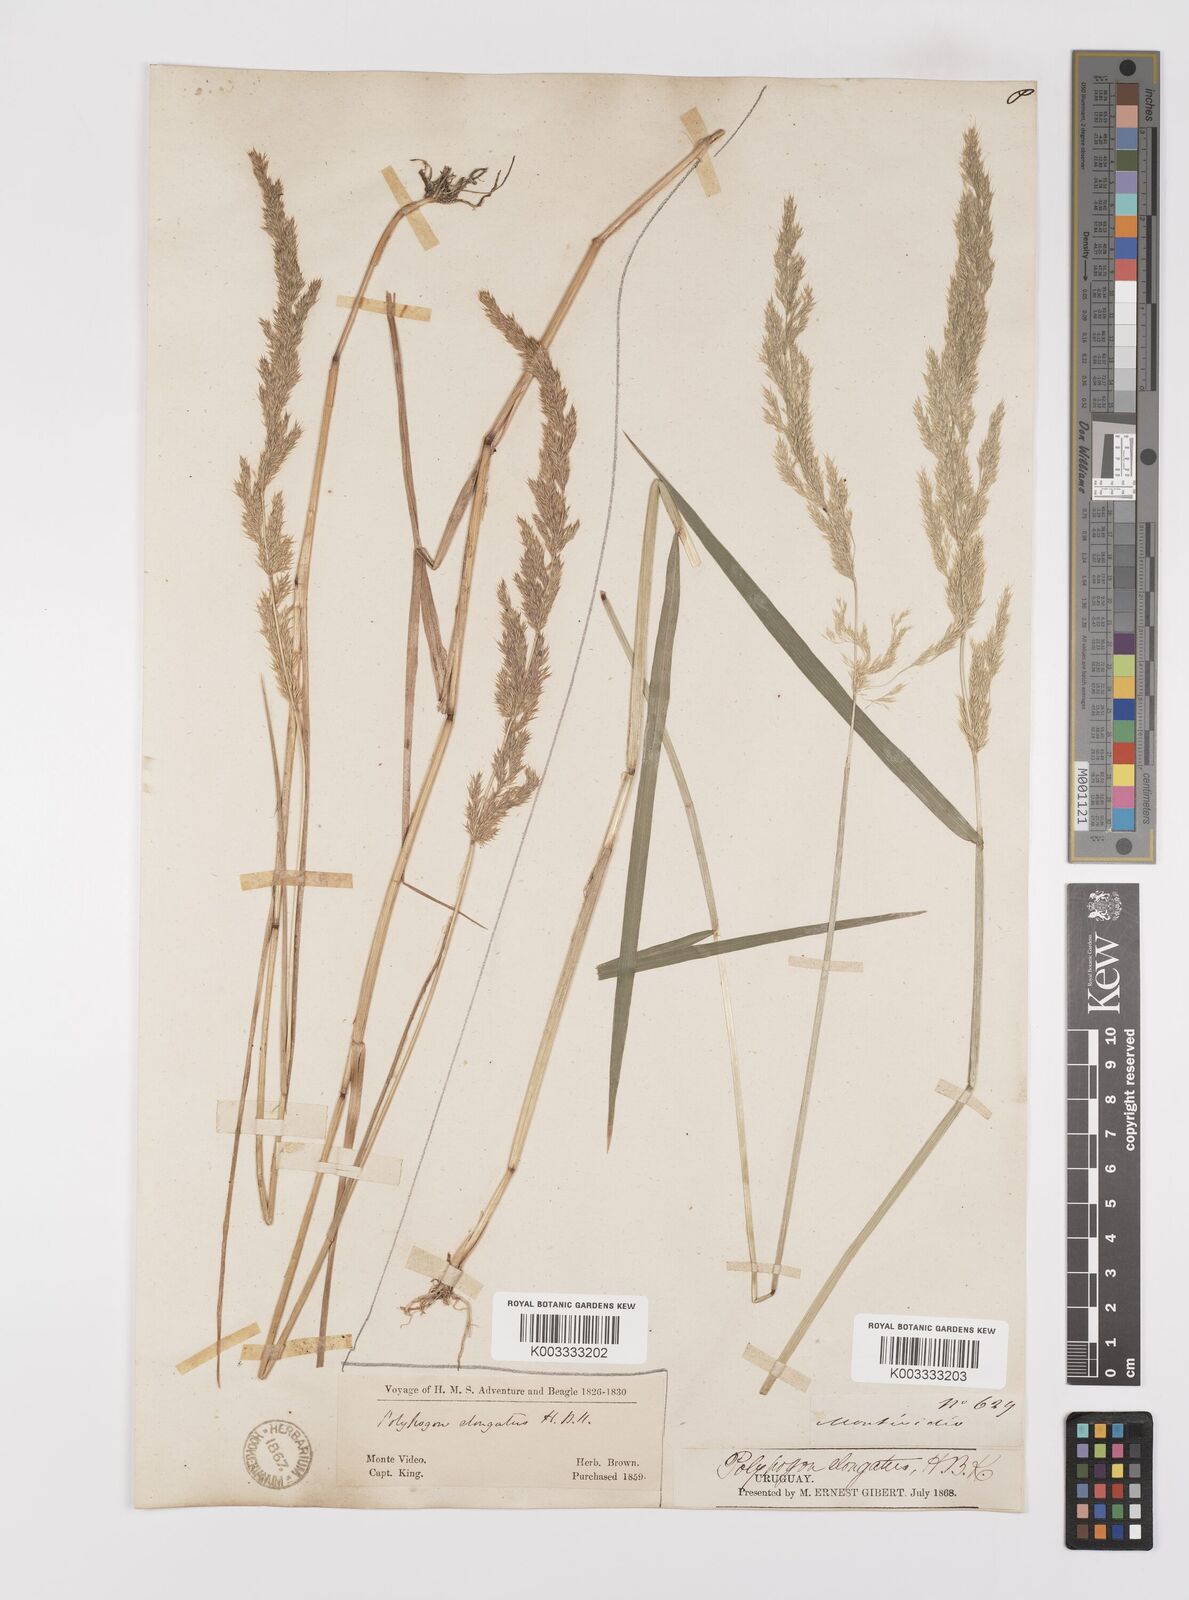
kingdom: Plantae
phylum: Tracheophyta
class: Liliopsida
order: Poales
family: Poaceae
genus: Polypogon
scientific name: Polypogon elongatus
